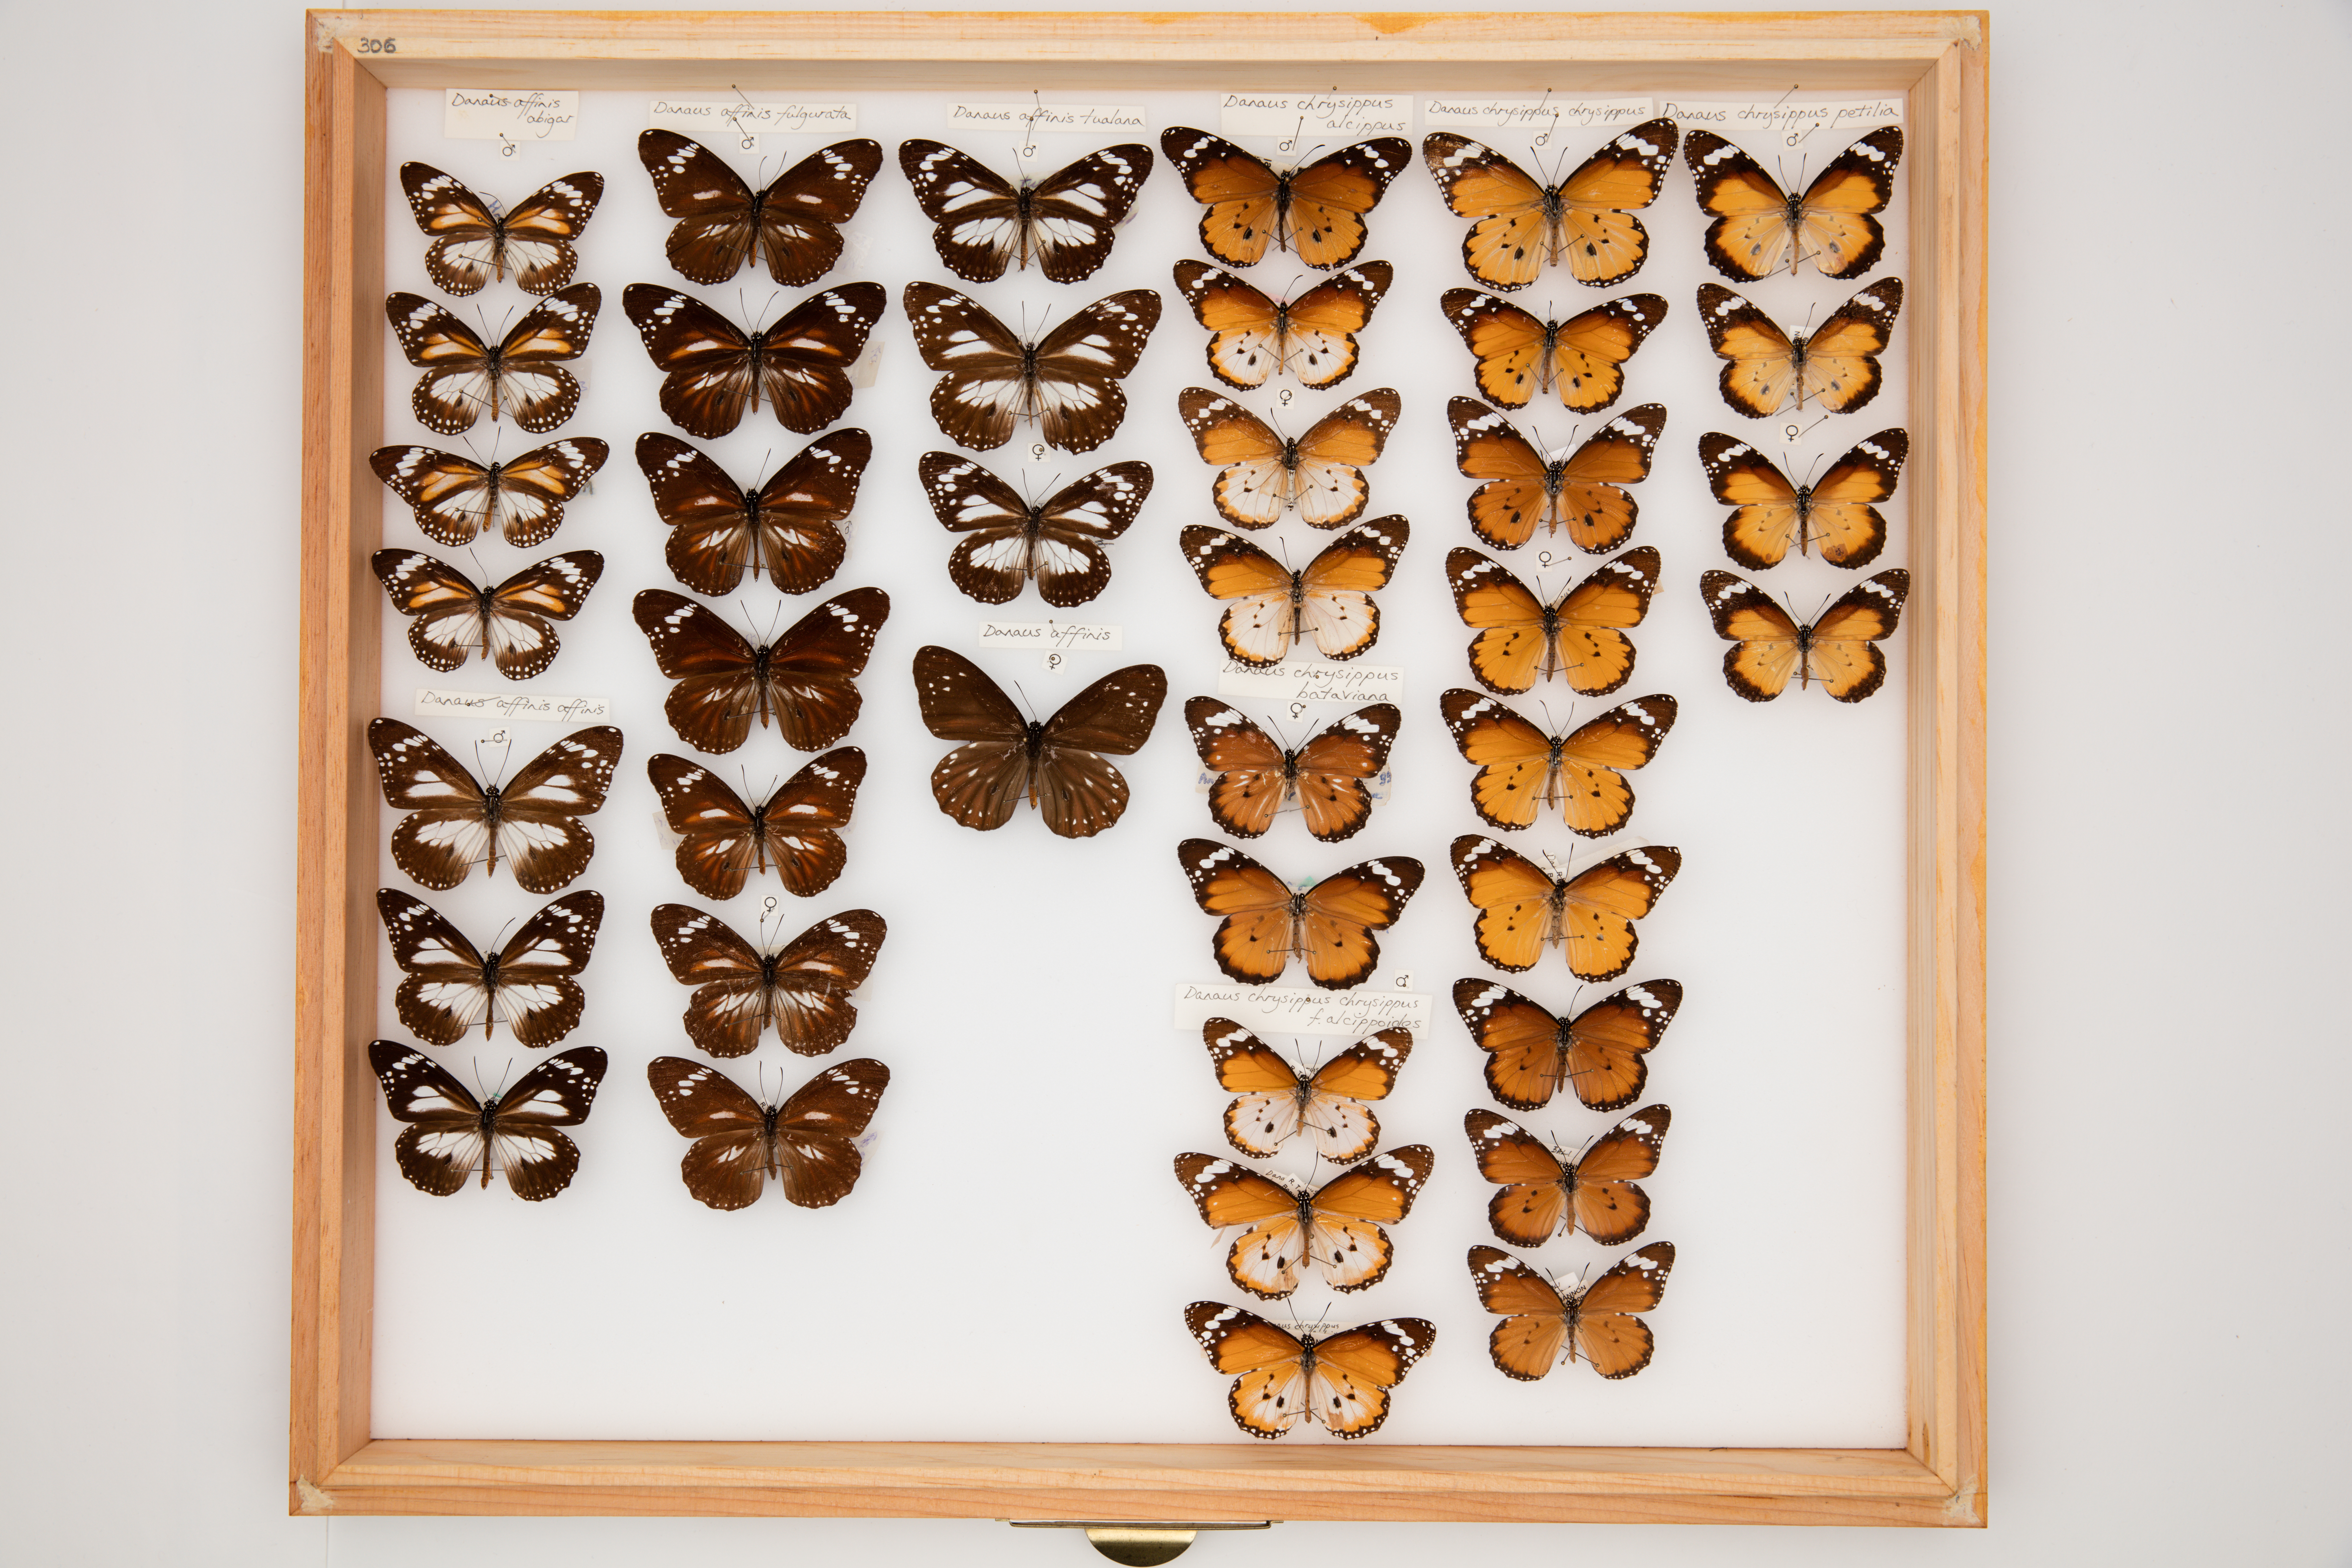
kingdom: Animalia
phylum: Arthropoda
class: Insecta
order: Lepidoptera
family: Nymphalidae
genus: Danaus
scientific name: Danaus chrysippus
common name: Plain tiger
